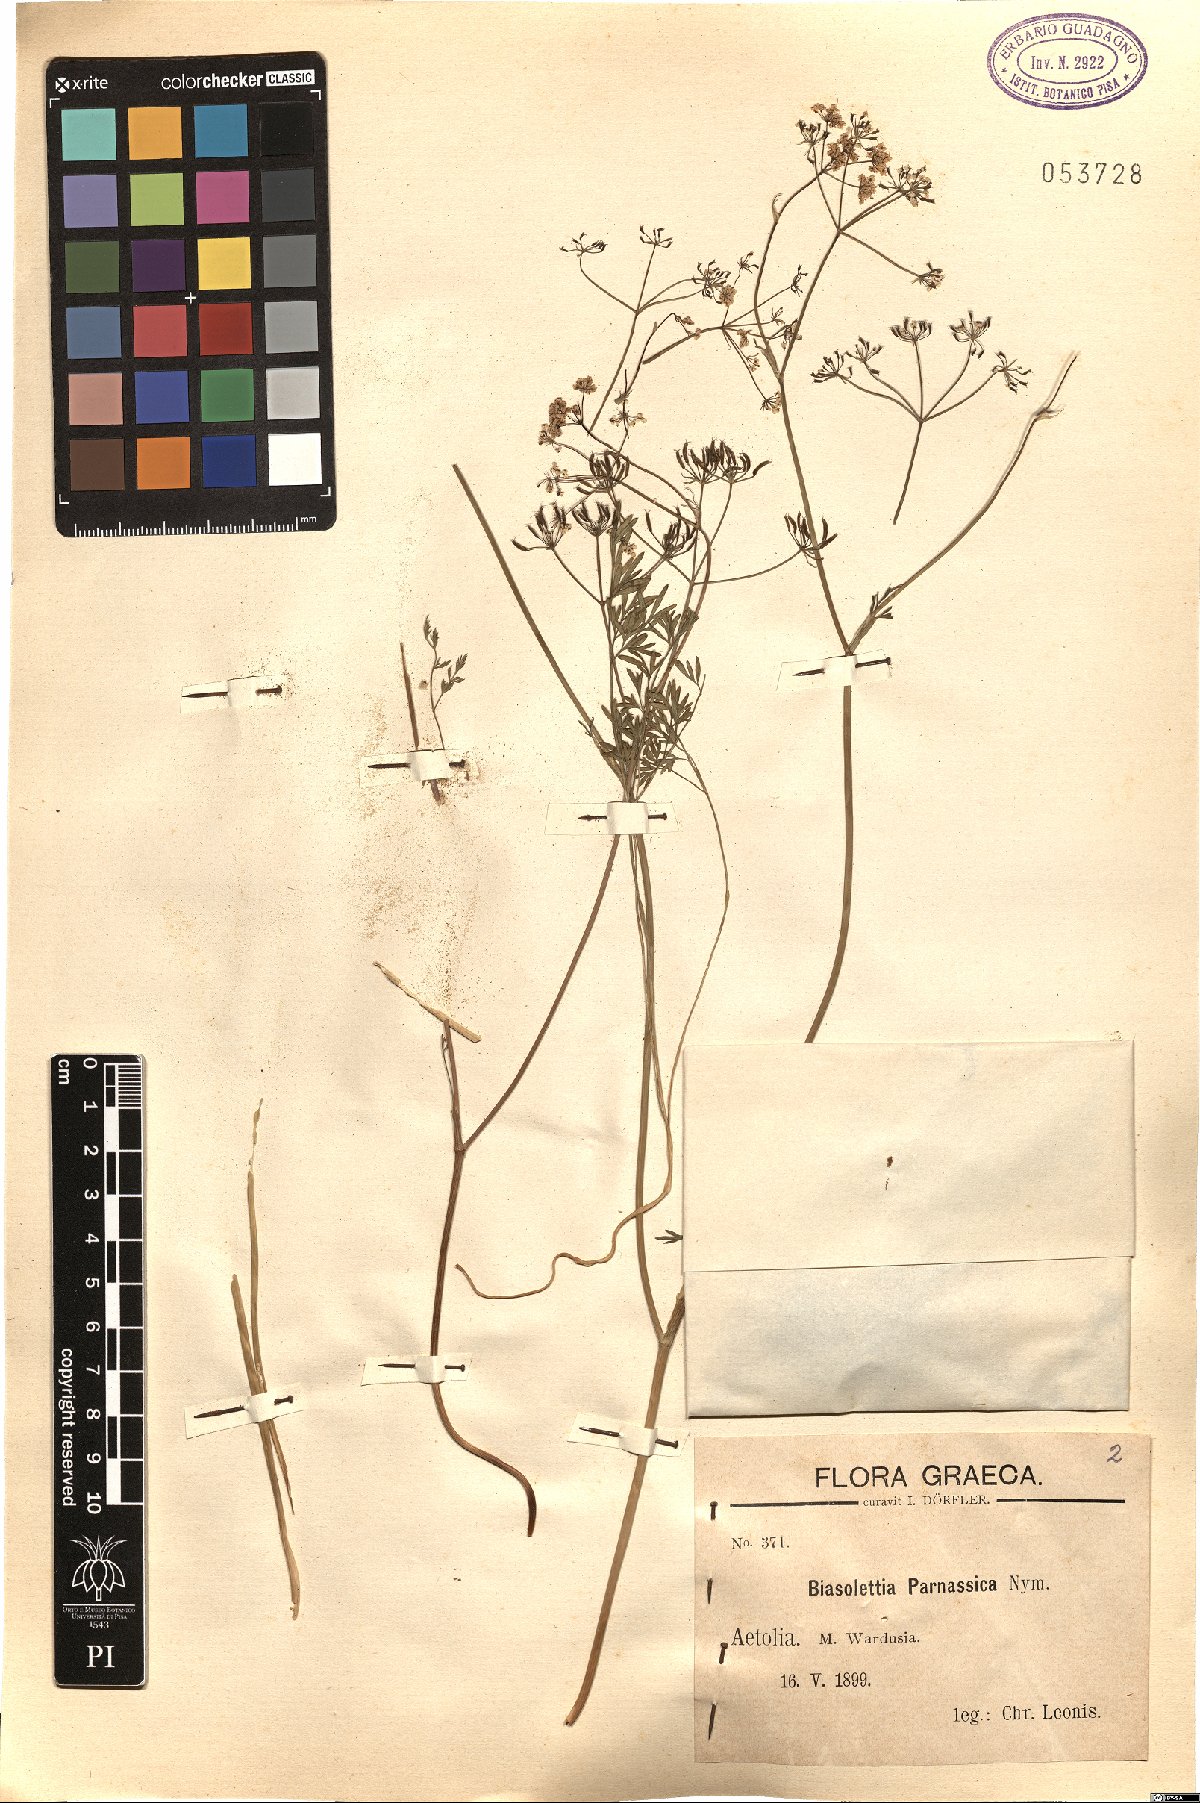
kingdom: Plantae
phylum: Tracheophyta
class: Magnoliopsida
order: Apiales
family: Apiaceae
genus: Geocaryum
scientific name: Geocaryum parnassicum
